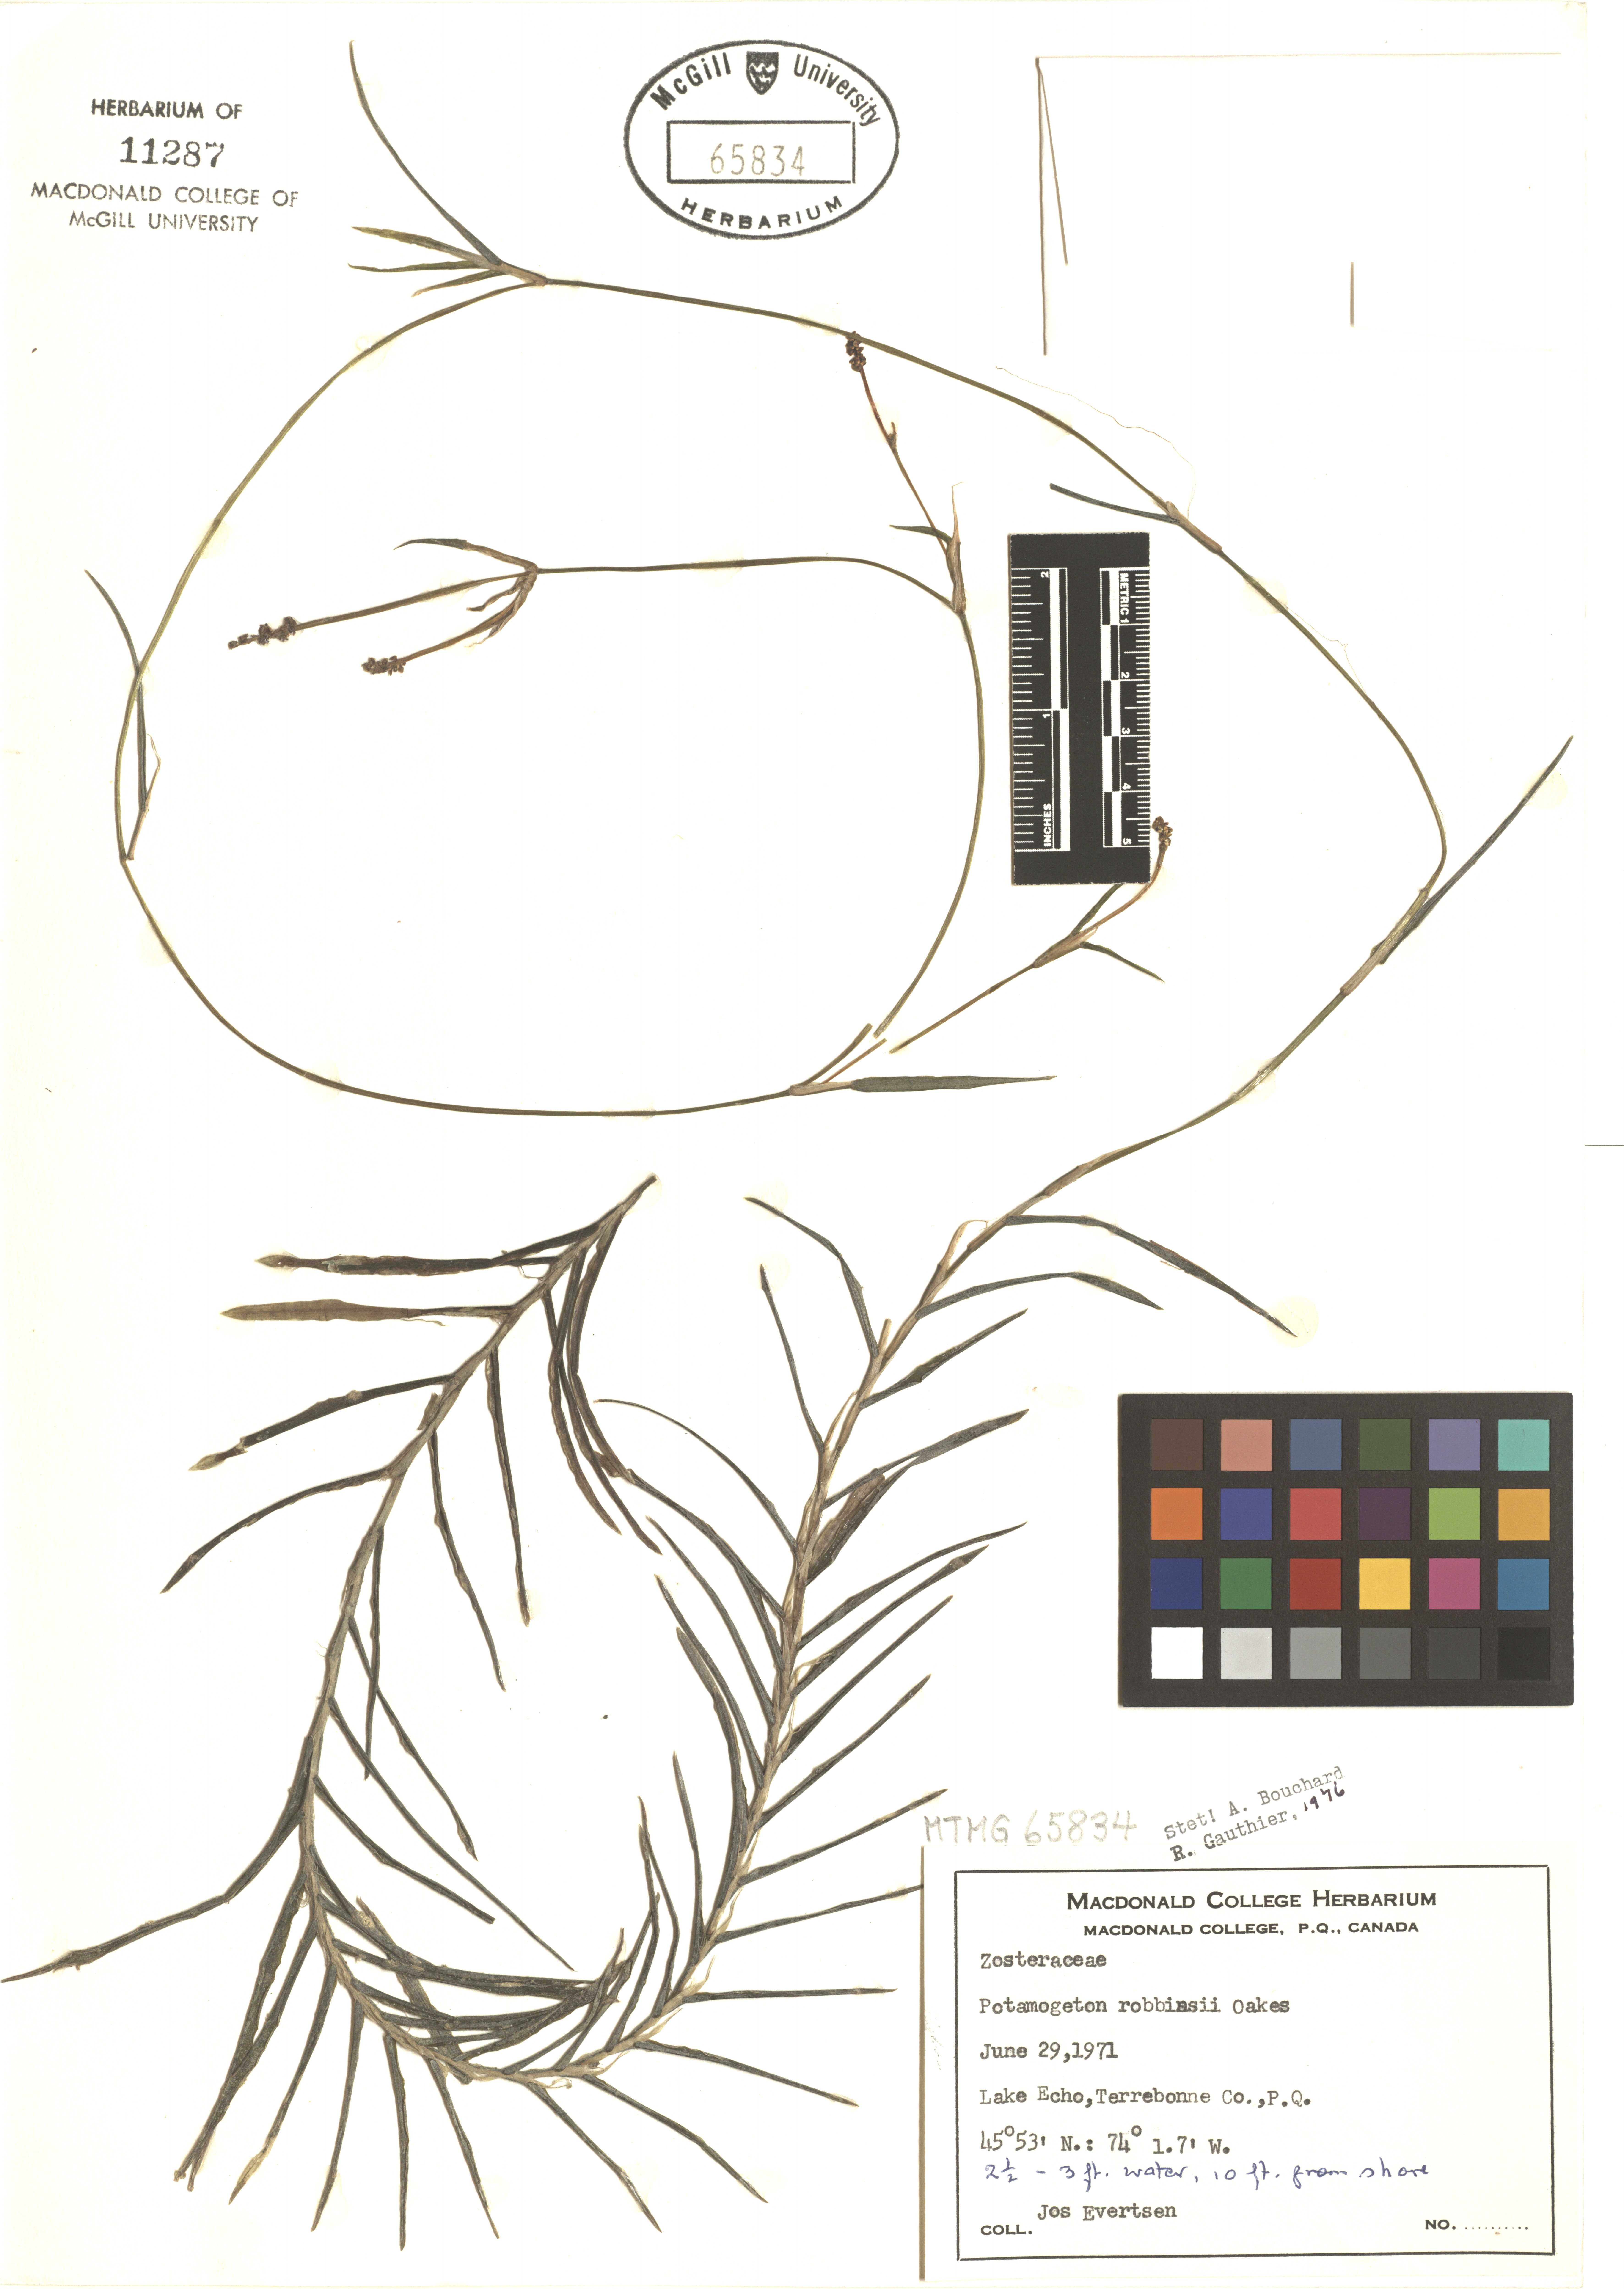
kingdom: Plantae
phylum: Tracheophyta
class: Liliopsida
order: Alismatales
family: Potamogetonaceae
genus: Potamogeton
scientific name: Potamogeton robbinsii
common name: Fern pondweed
